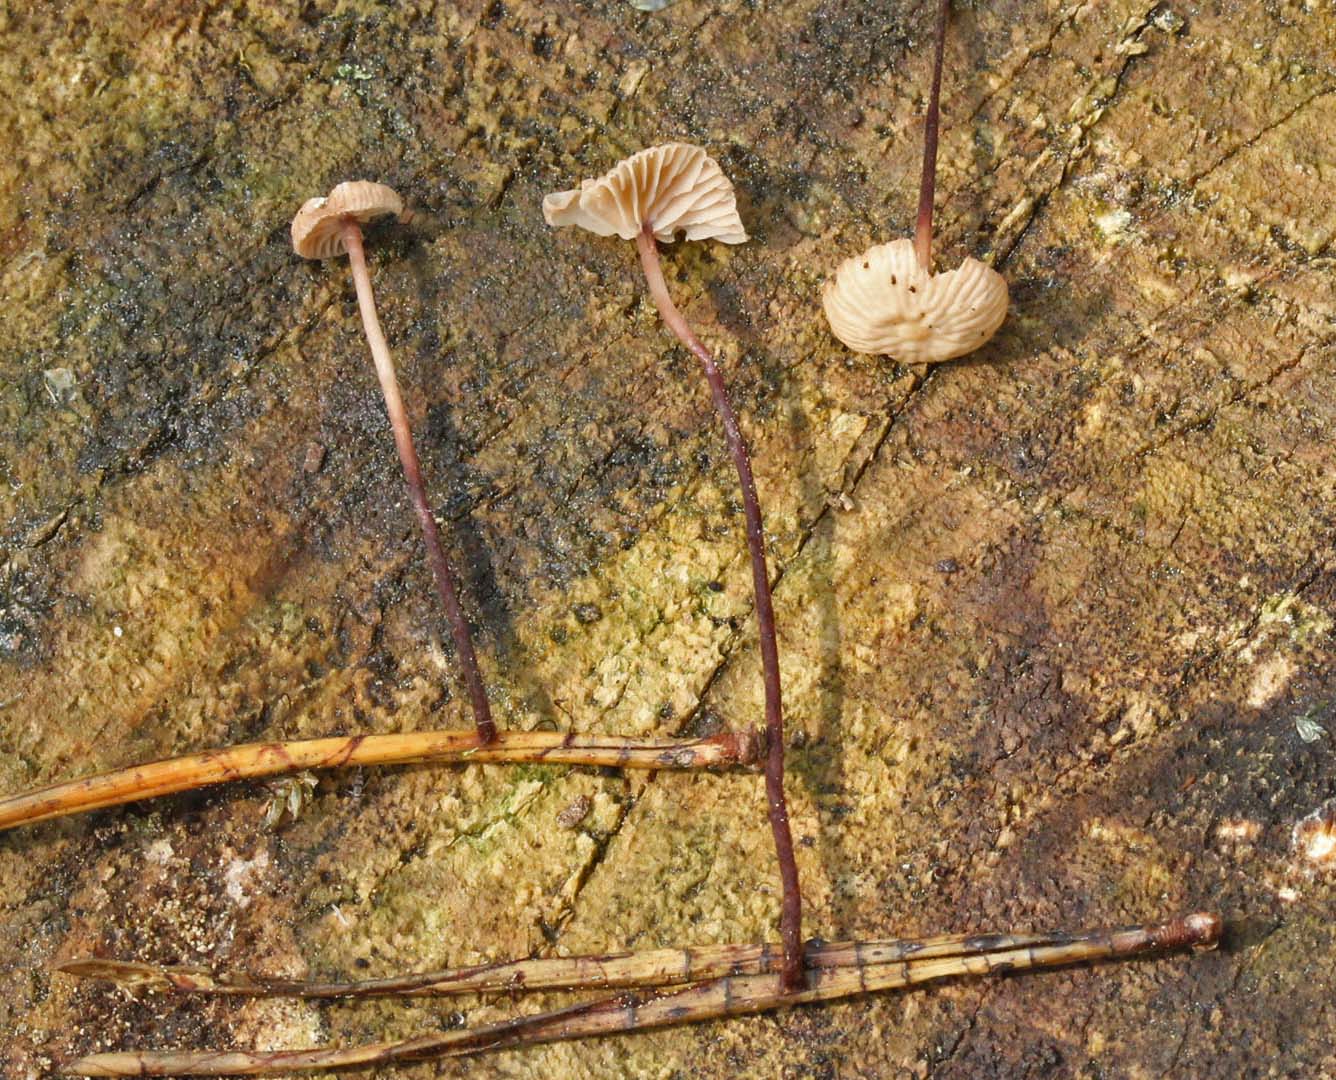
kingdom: Fungi
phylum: Basidiomycota
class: Agaricomycetes
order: Agaricales
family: Omphalotaceae
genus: Paragymnopus
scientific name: Paragymnopus perforans
